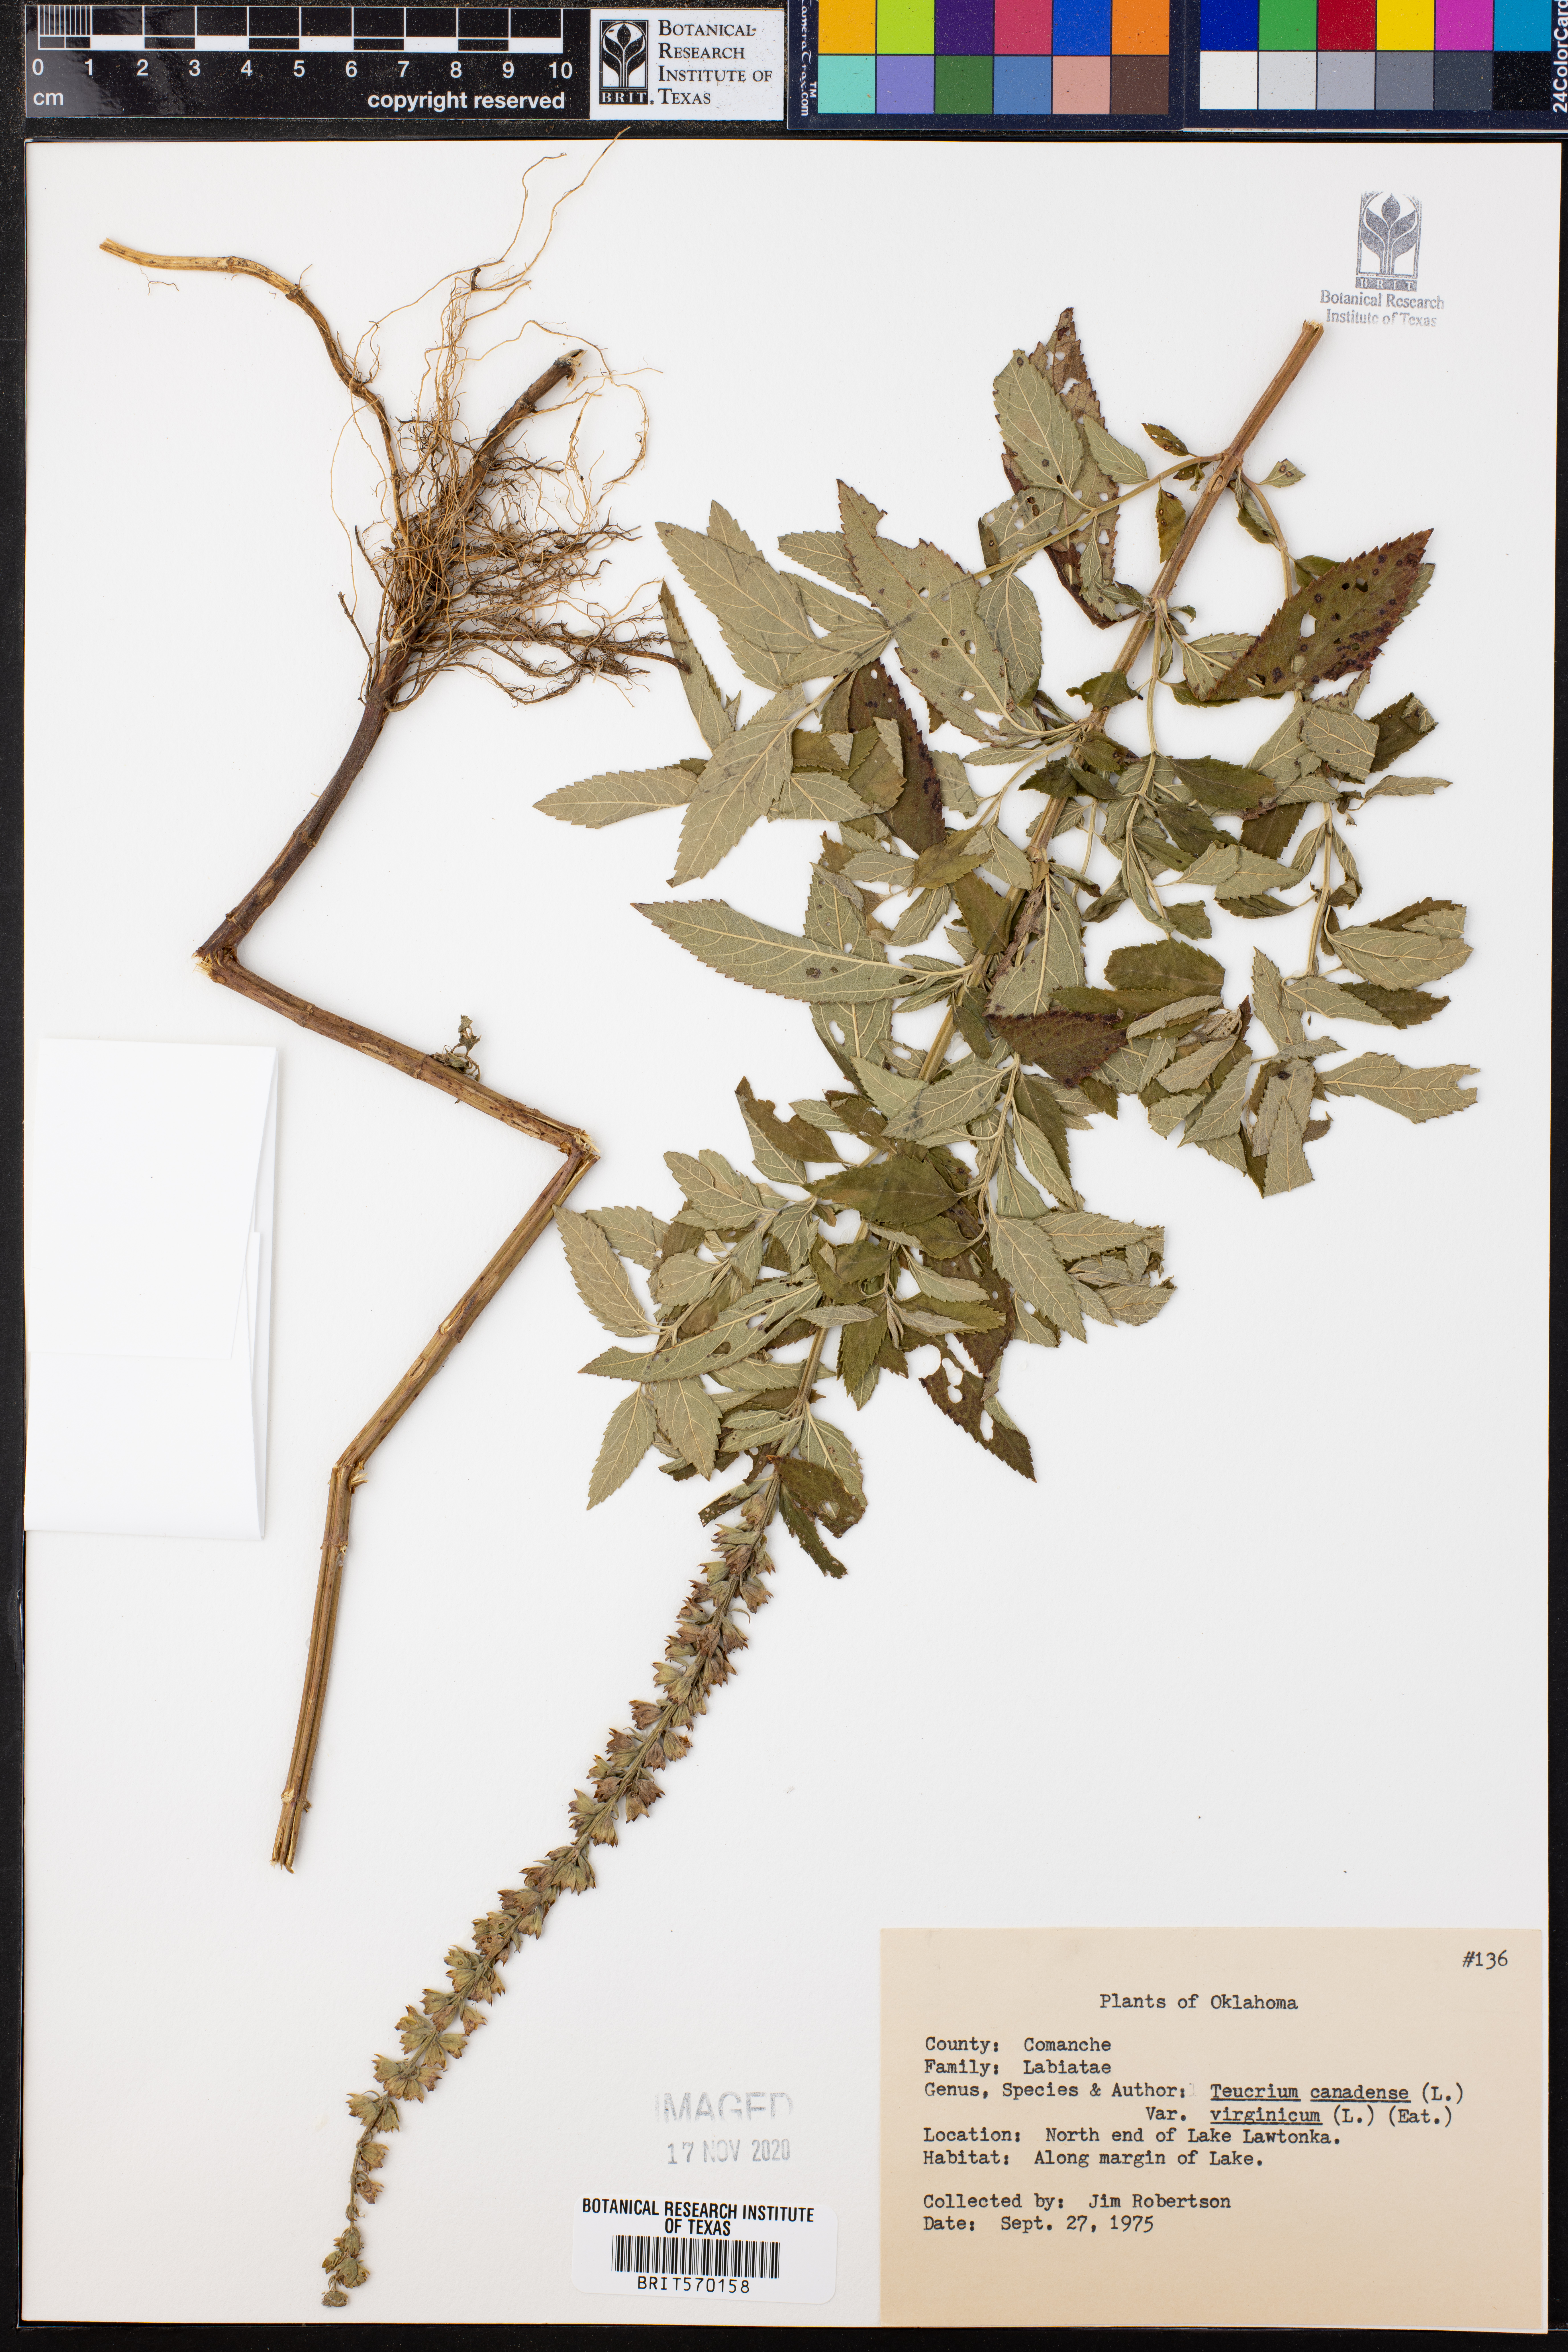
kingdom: Plantae
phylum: Tracheophyta
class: Magnoliopsida
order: Lamiales
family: Lamiaceae
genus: Teucrium
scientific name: Teucrium canadense
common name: American germander
